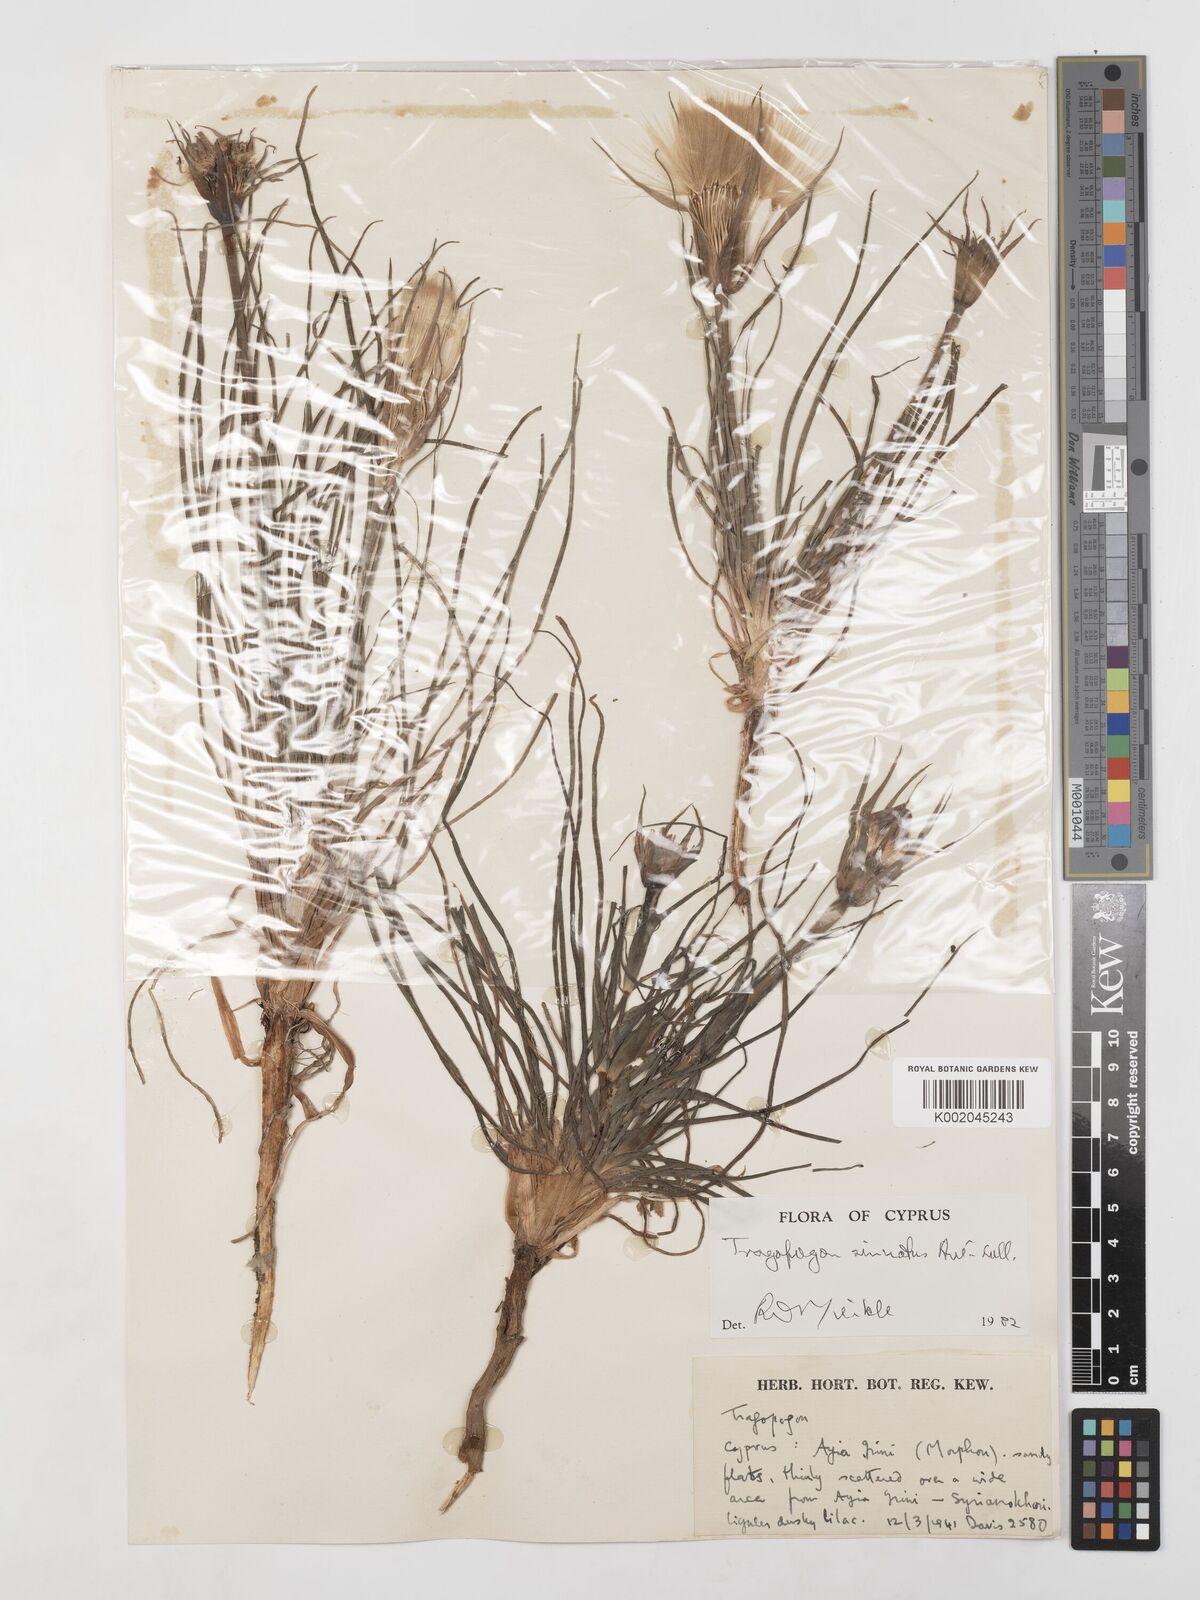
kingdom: Plantae
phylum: Tracheophyta
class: Magnoliopsida
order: Asterales
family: Asteraceae
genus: Tragopogon
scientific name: Tragopogon coelesyriacus
